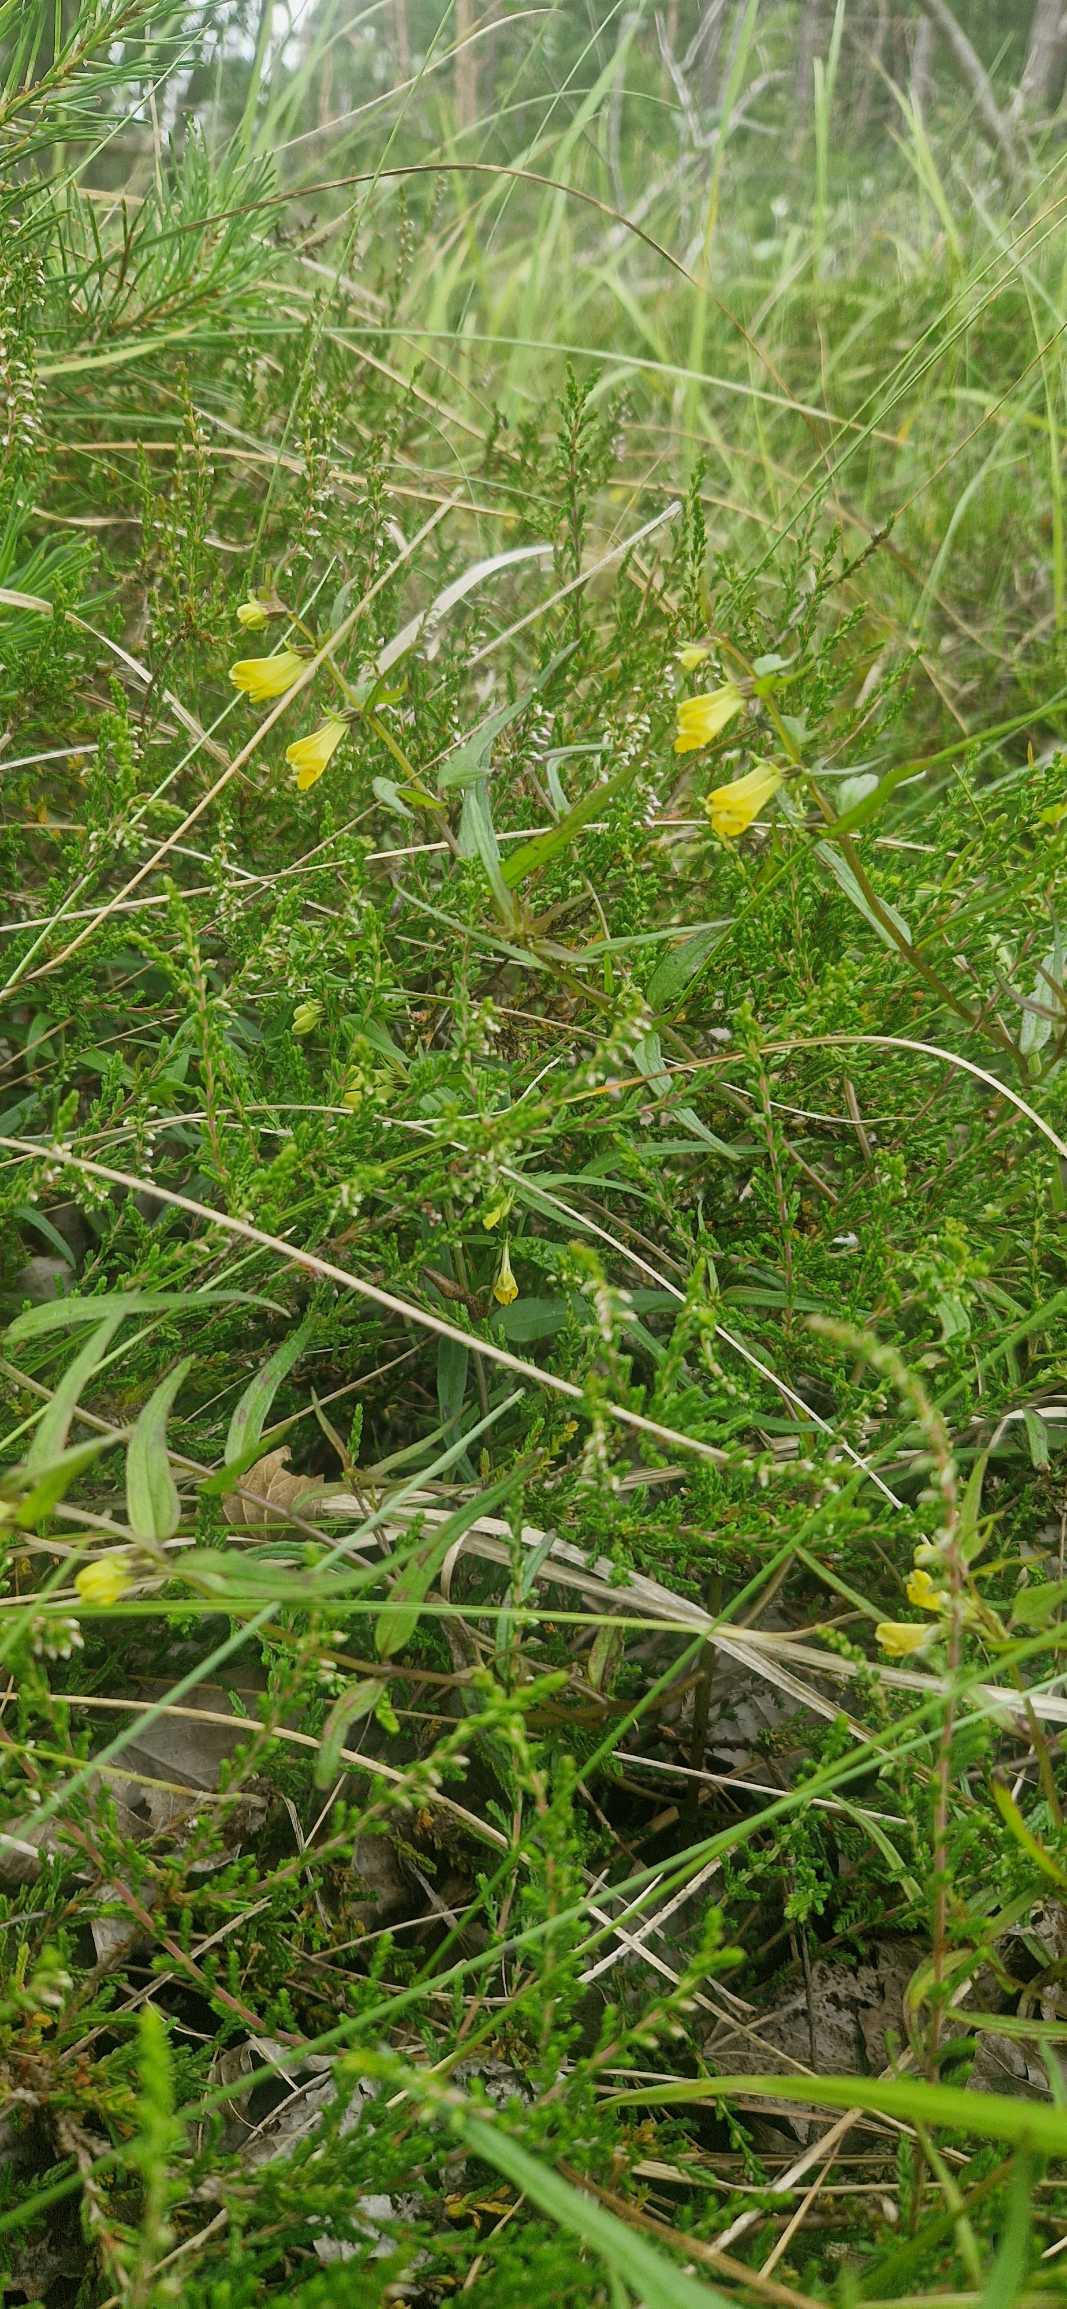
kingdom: Plantae
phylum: Tracheophyta
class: Magnoliopsida
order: Lamiales
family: Orobanchaceae
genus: Melampyrum
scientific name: Melampyrum pratense
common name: Almindelig kohvede
